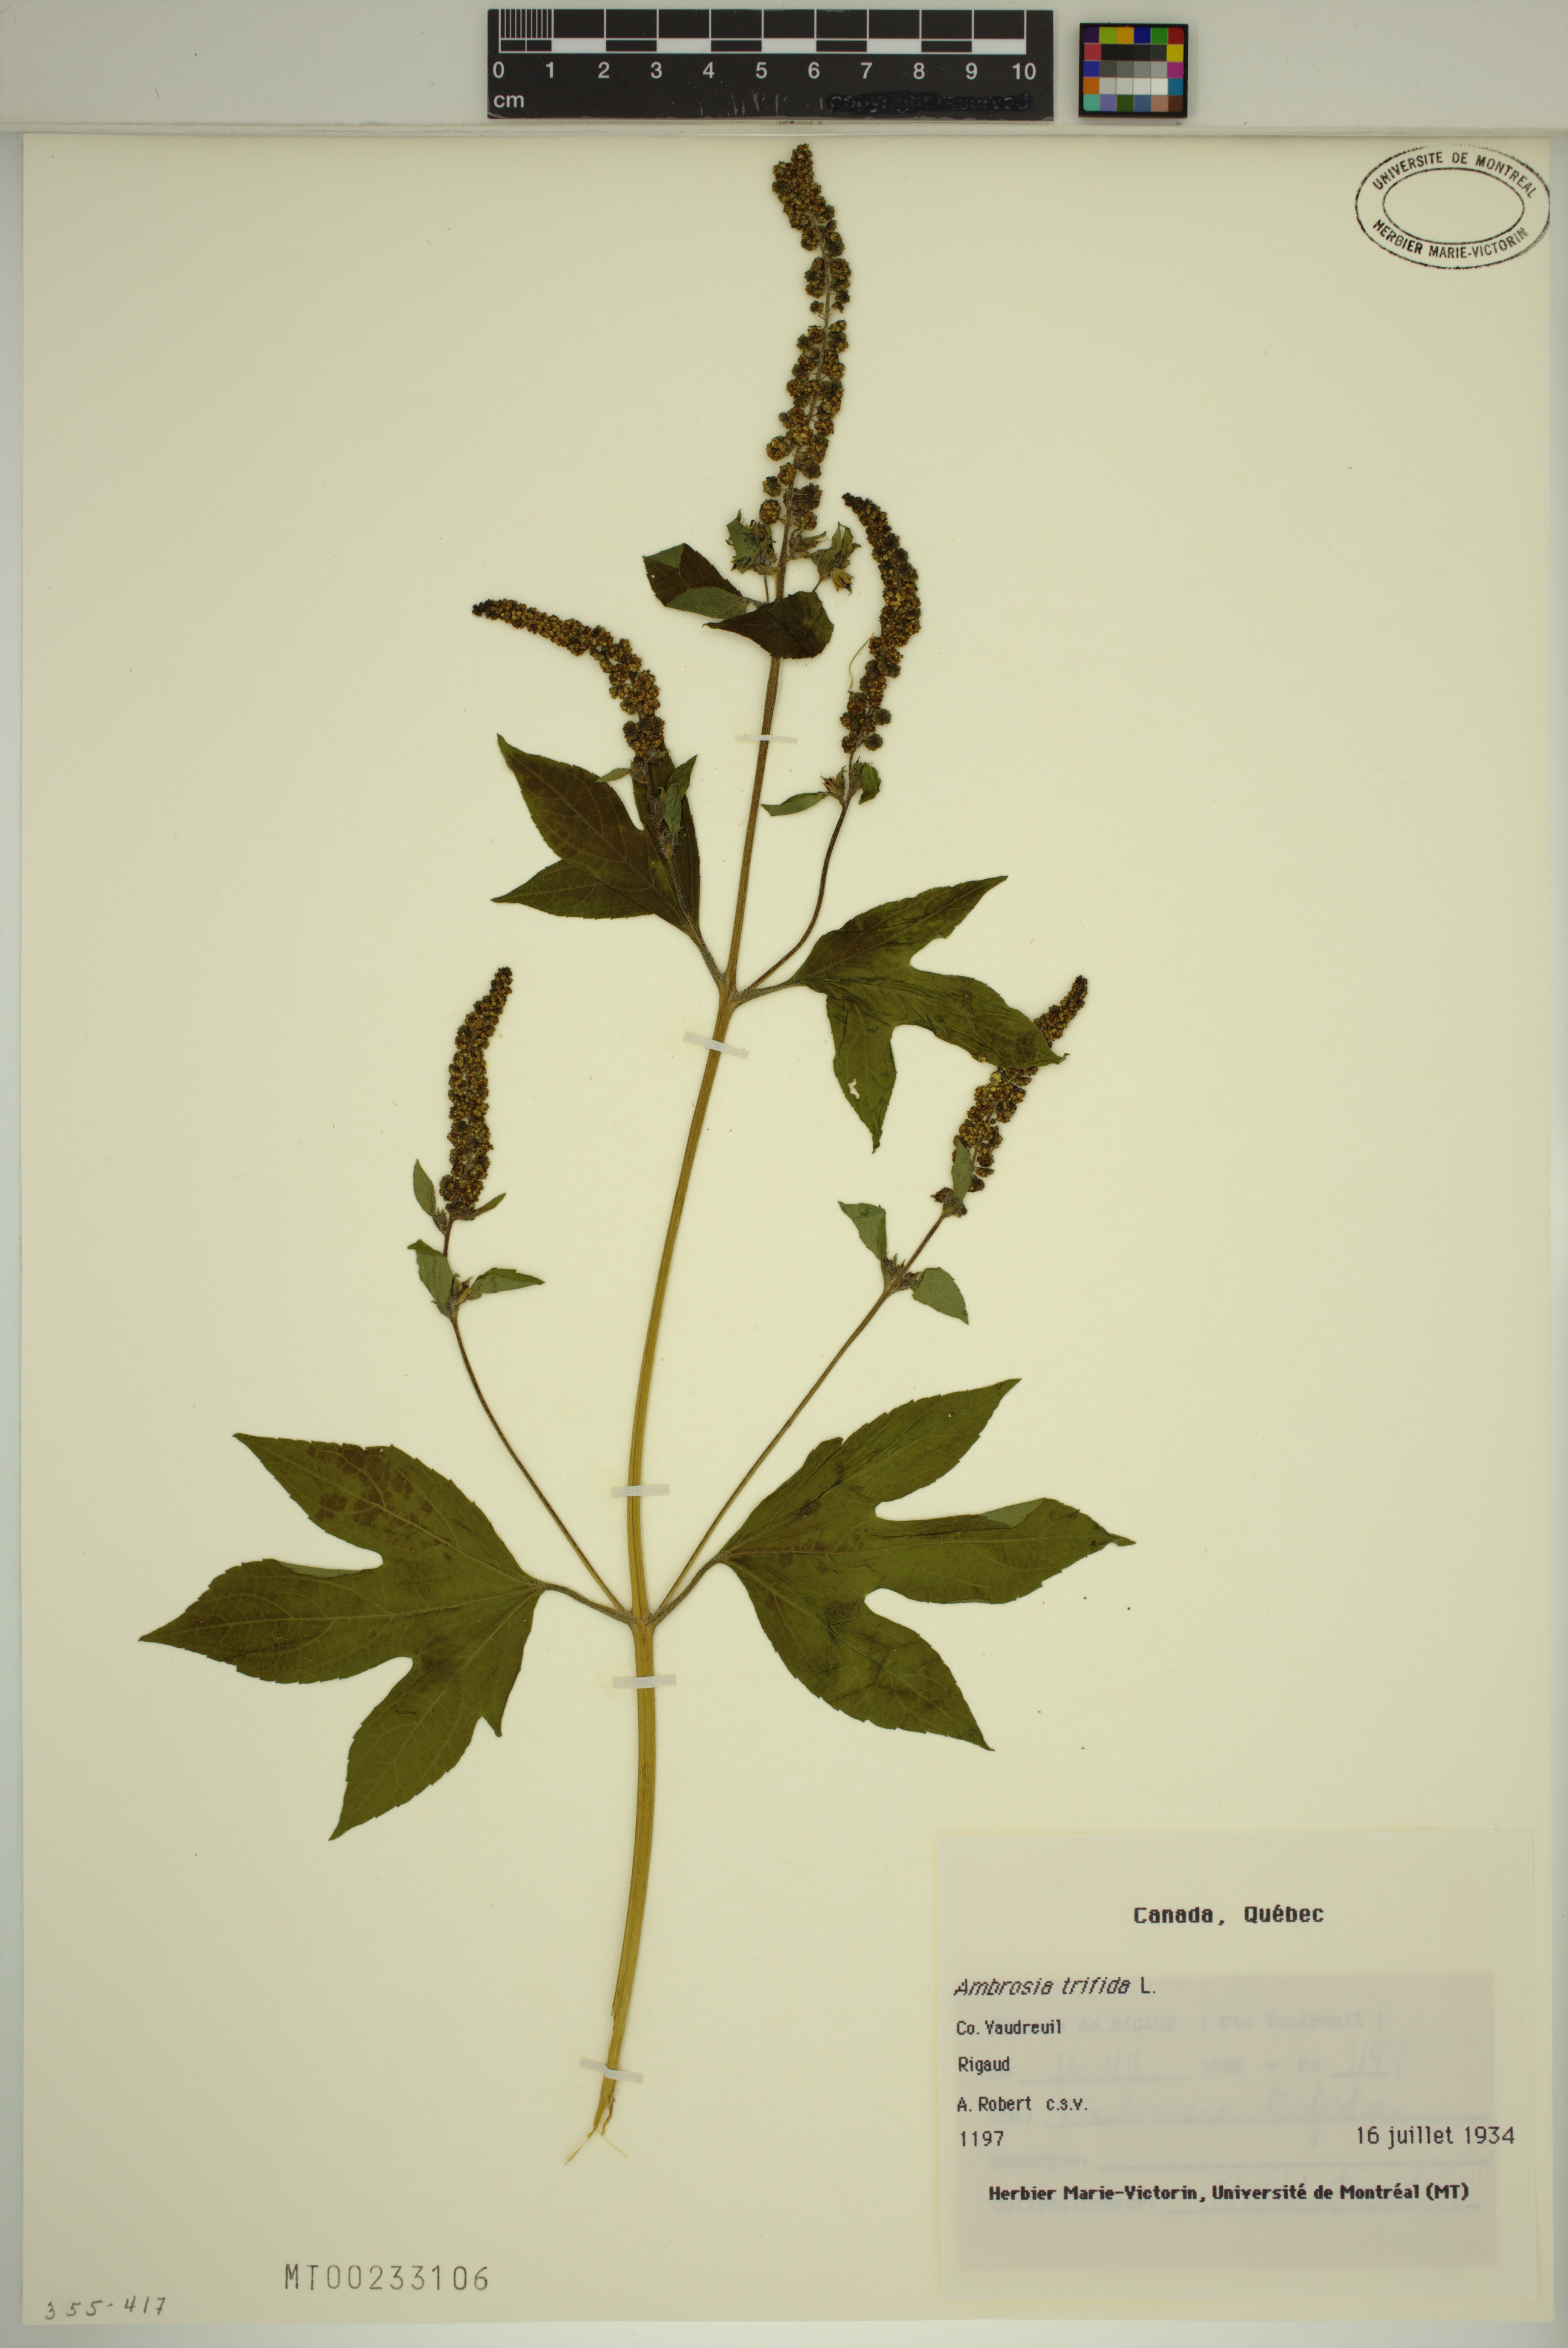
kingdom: Plantae
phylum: Tracheophyta
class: Magnoliopsida
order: Asterales
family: Asteraceae
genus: Ambrosia
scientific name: Ambrosia trifida
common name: Giant ragweed
